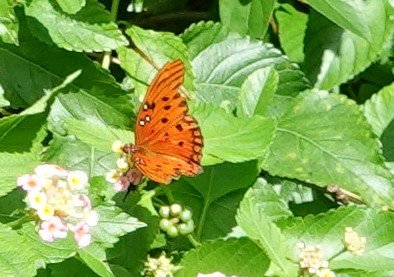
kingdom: Animalia
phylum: Arthropoda
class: Insecta
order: Lepidoptera
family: Nymphalidae
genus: Dione
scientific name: Dione vanillae
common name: Gulf Fritillary
